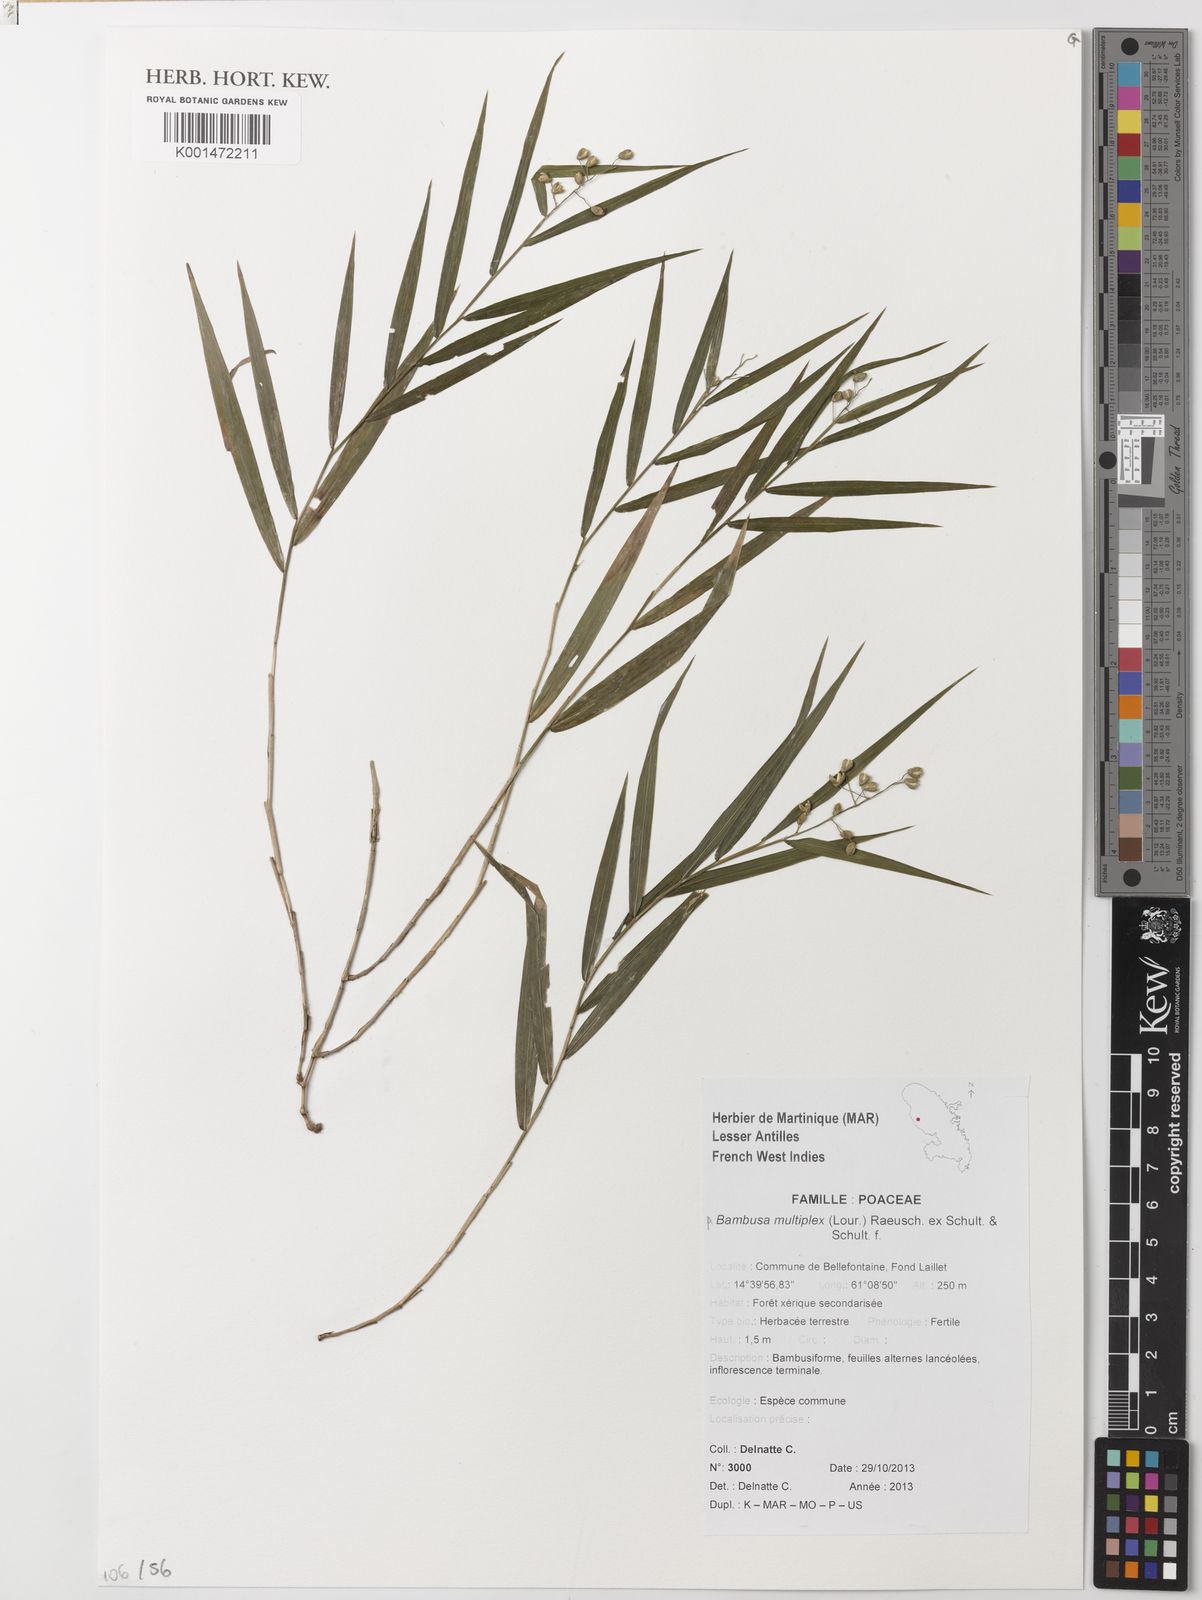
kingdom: Plantae
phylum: Tracheophyta
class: Liliopsida
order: Poales
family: Poaceae
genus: Bambusa
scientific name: Bambusa multiplex
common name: Hedge bamboo
